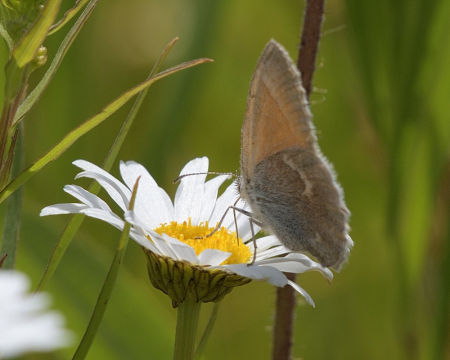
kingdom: Animalia
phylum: Arthropoda
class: Insecta
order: Lepidoptera
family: Nymphalidae
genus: Coenonympha
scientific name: Coenonympha tullia
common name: Large Heath
